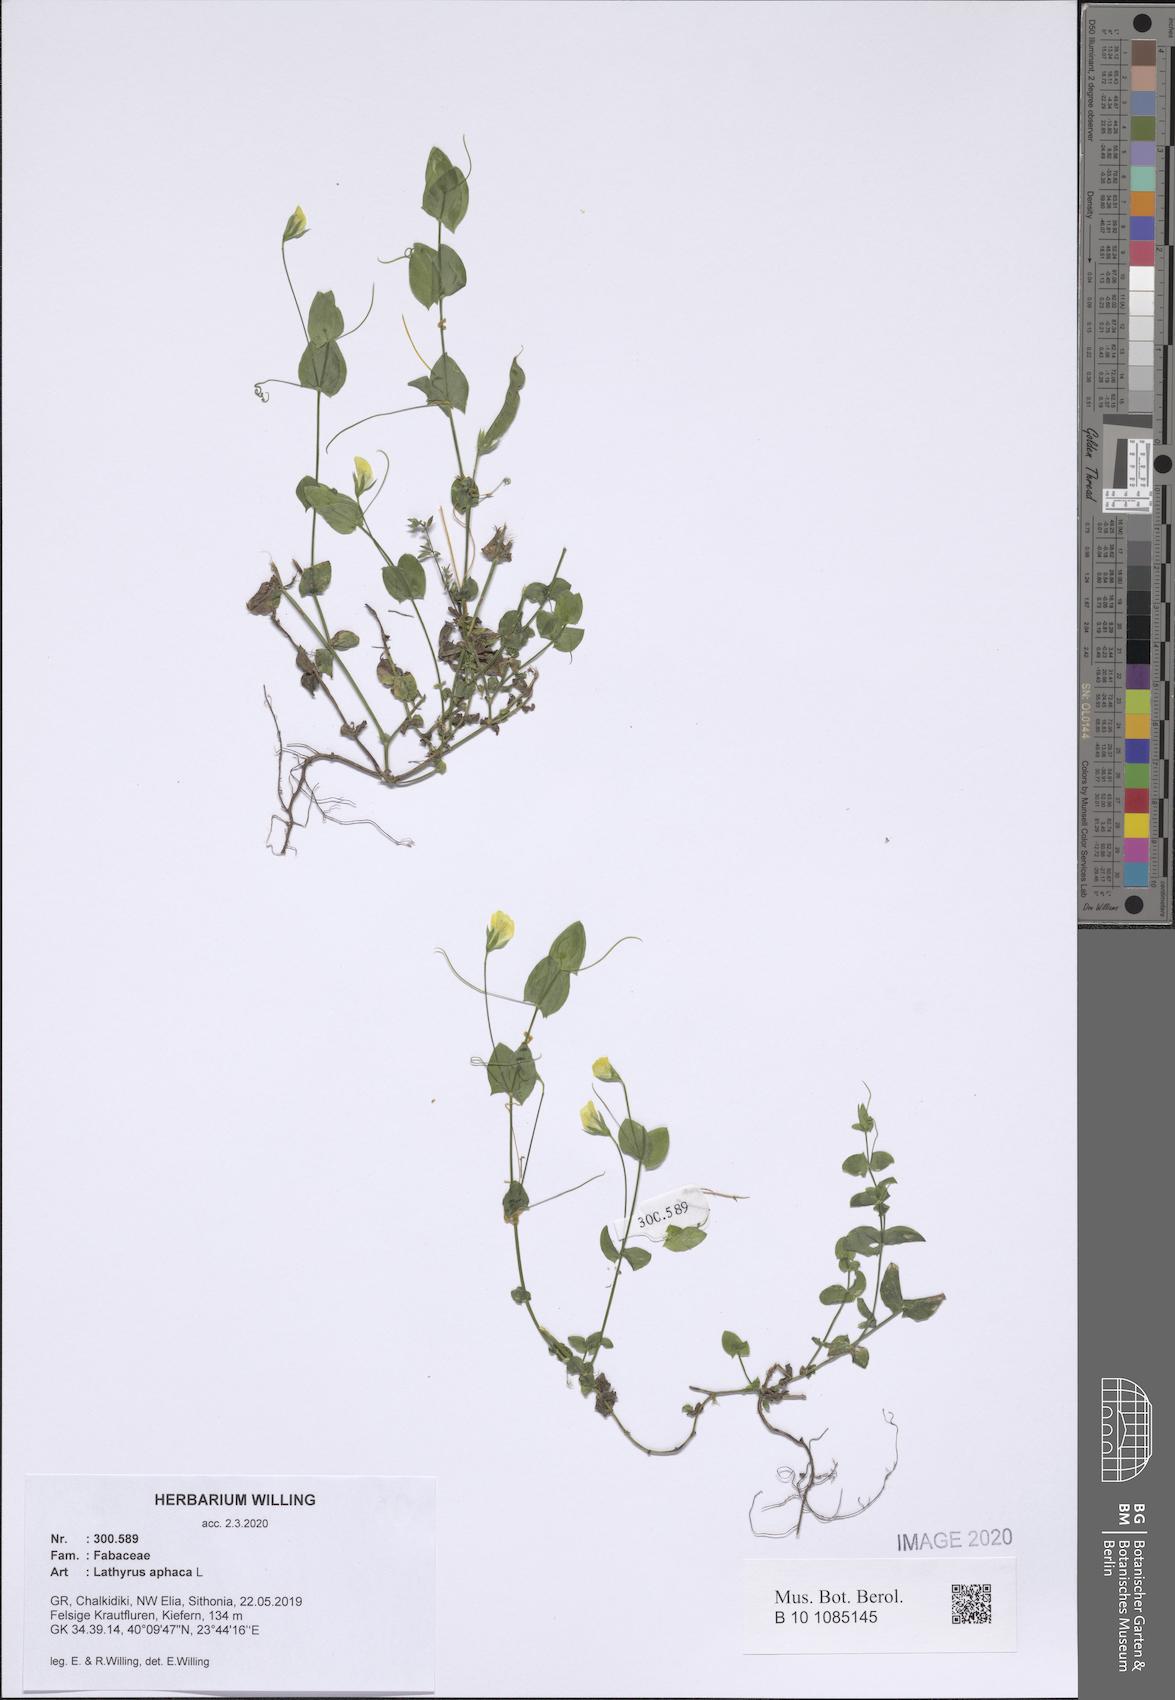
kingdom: Plantae
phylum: Tracheophyta
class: Magnoliopsida
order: Fabales
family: Fabaceae
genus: Lathyrus
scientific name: Lathyrus aphaca
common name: Yellow vetchling
